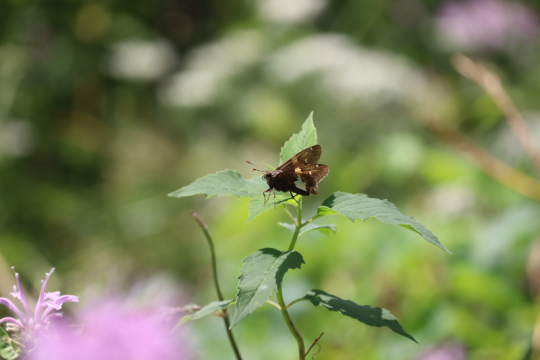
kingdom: Animalia
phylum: Arthropoda
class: Insecta
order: Lepidoptera
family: Hesperiidae
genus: Epargyreus
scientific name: Epargyreus clarus
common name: Silver-spotted Skipper
